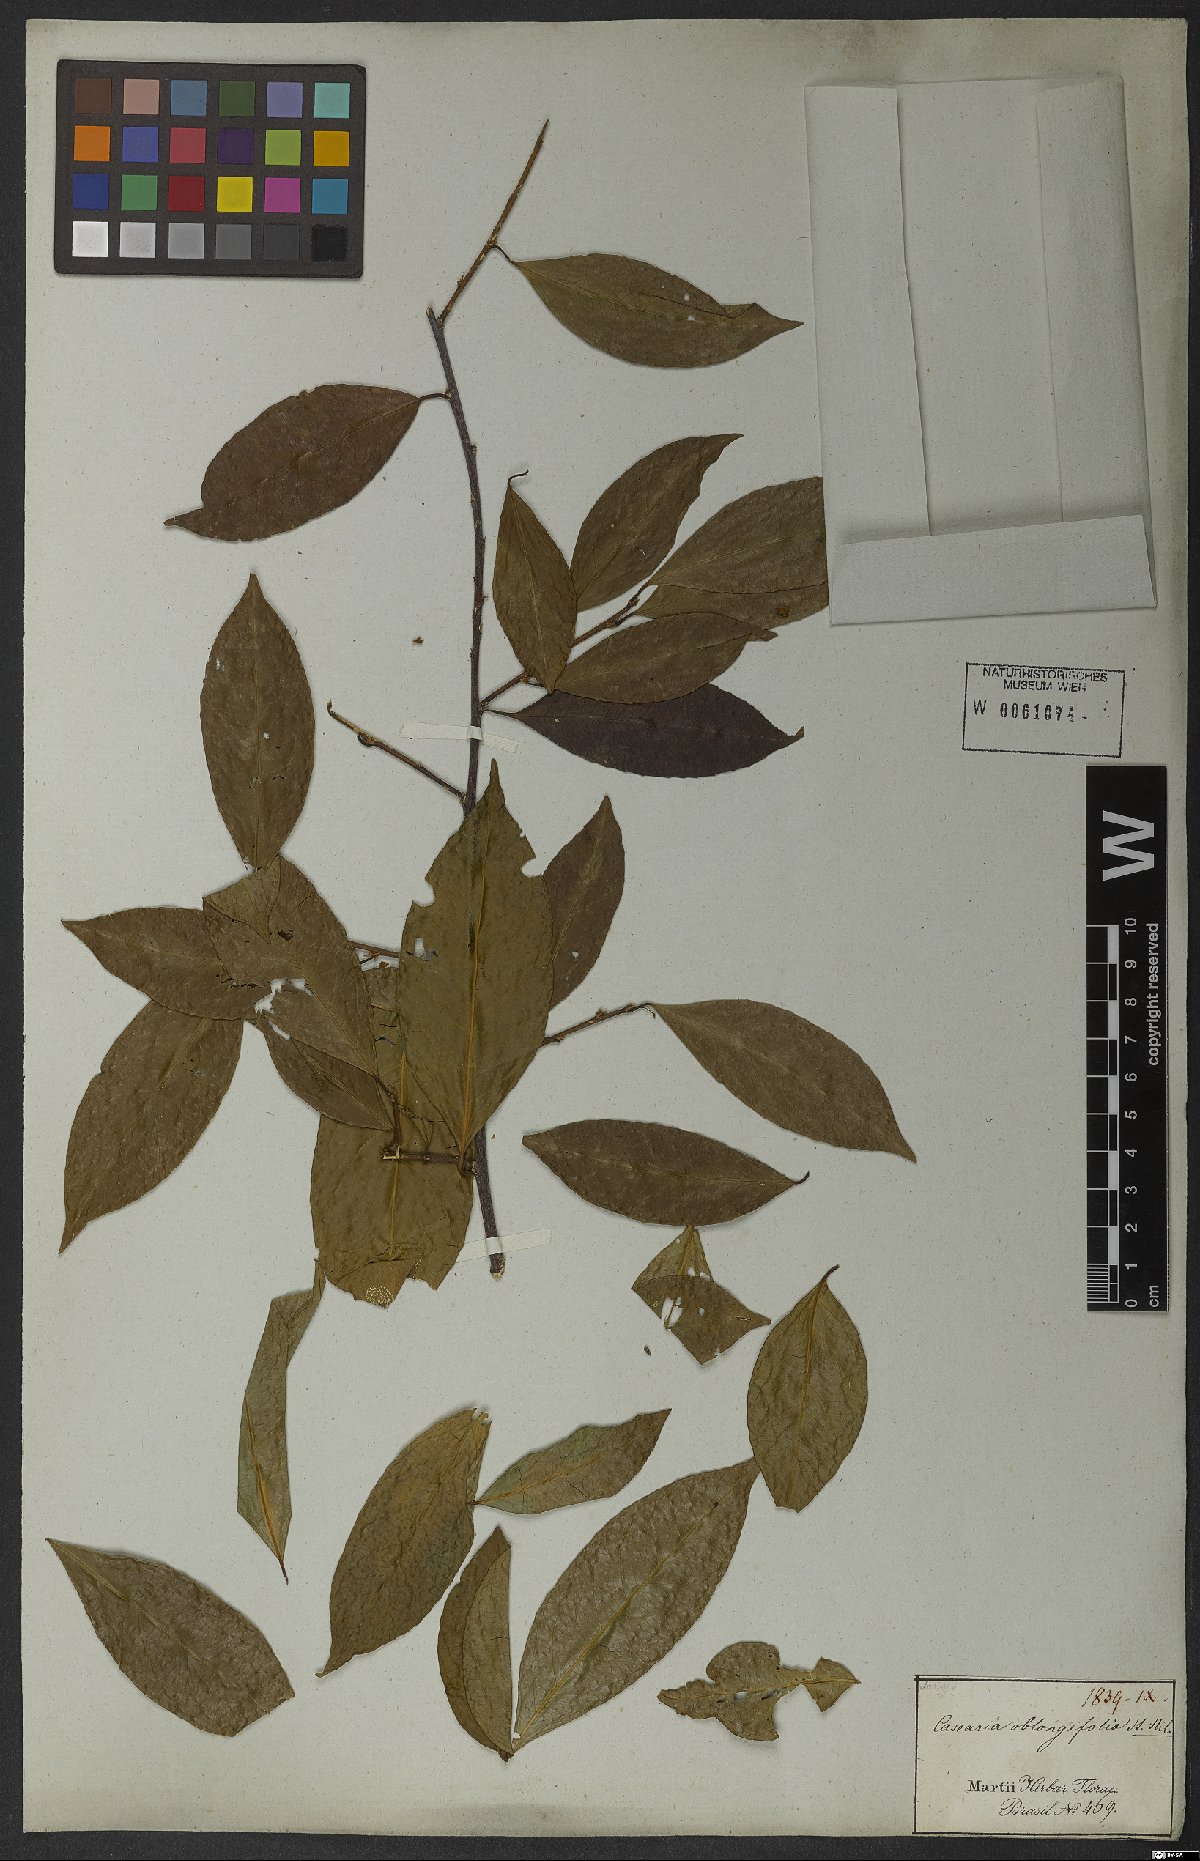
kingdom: Plantae
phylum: Tracheophyta
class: Magnoliopsida
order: Malpighiales
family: Salicaceae
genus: Casearia
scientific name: Casearia oblongifolia
